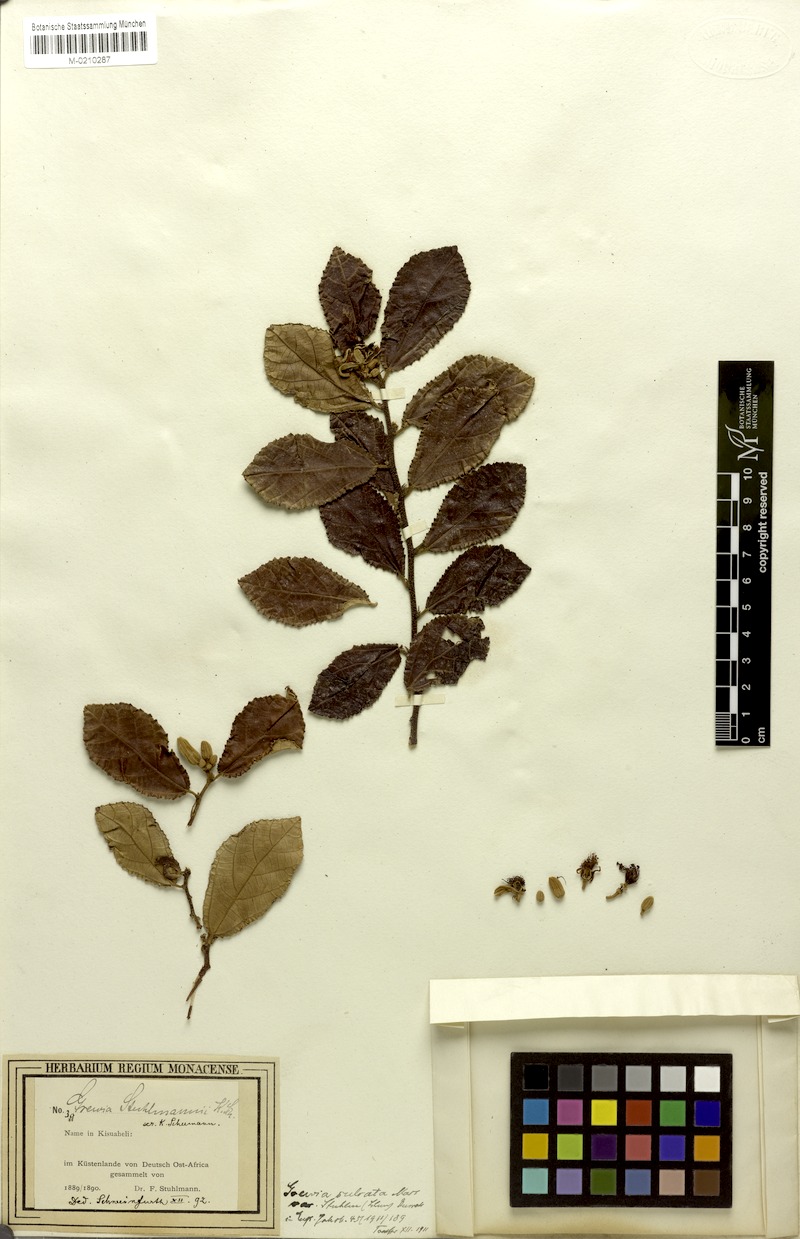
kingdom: Plantae
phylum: Tracheophyta
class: Magnoliopsida
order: Malvales
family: Malvaceae
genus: Grewia
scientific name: Grewia stuhlmannii
